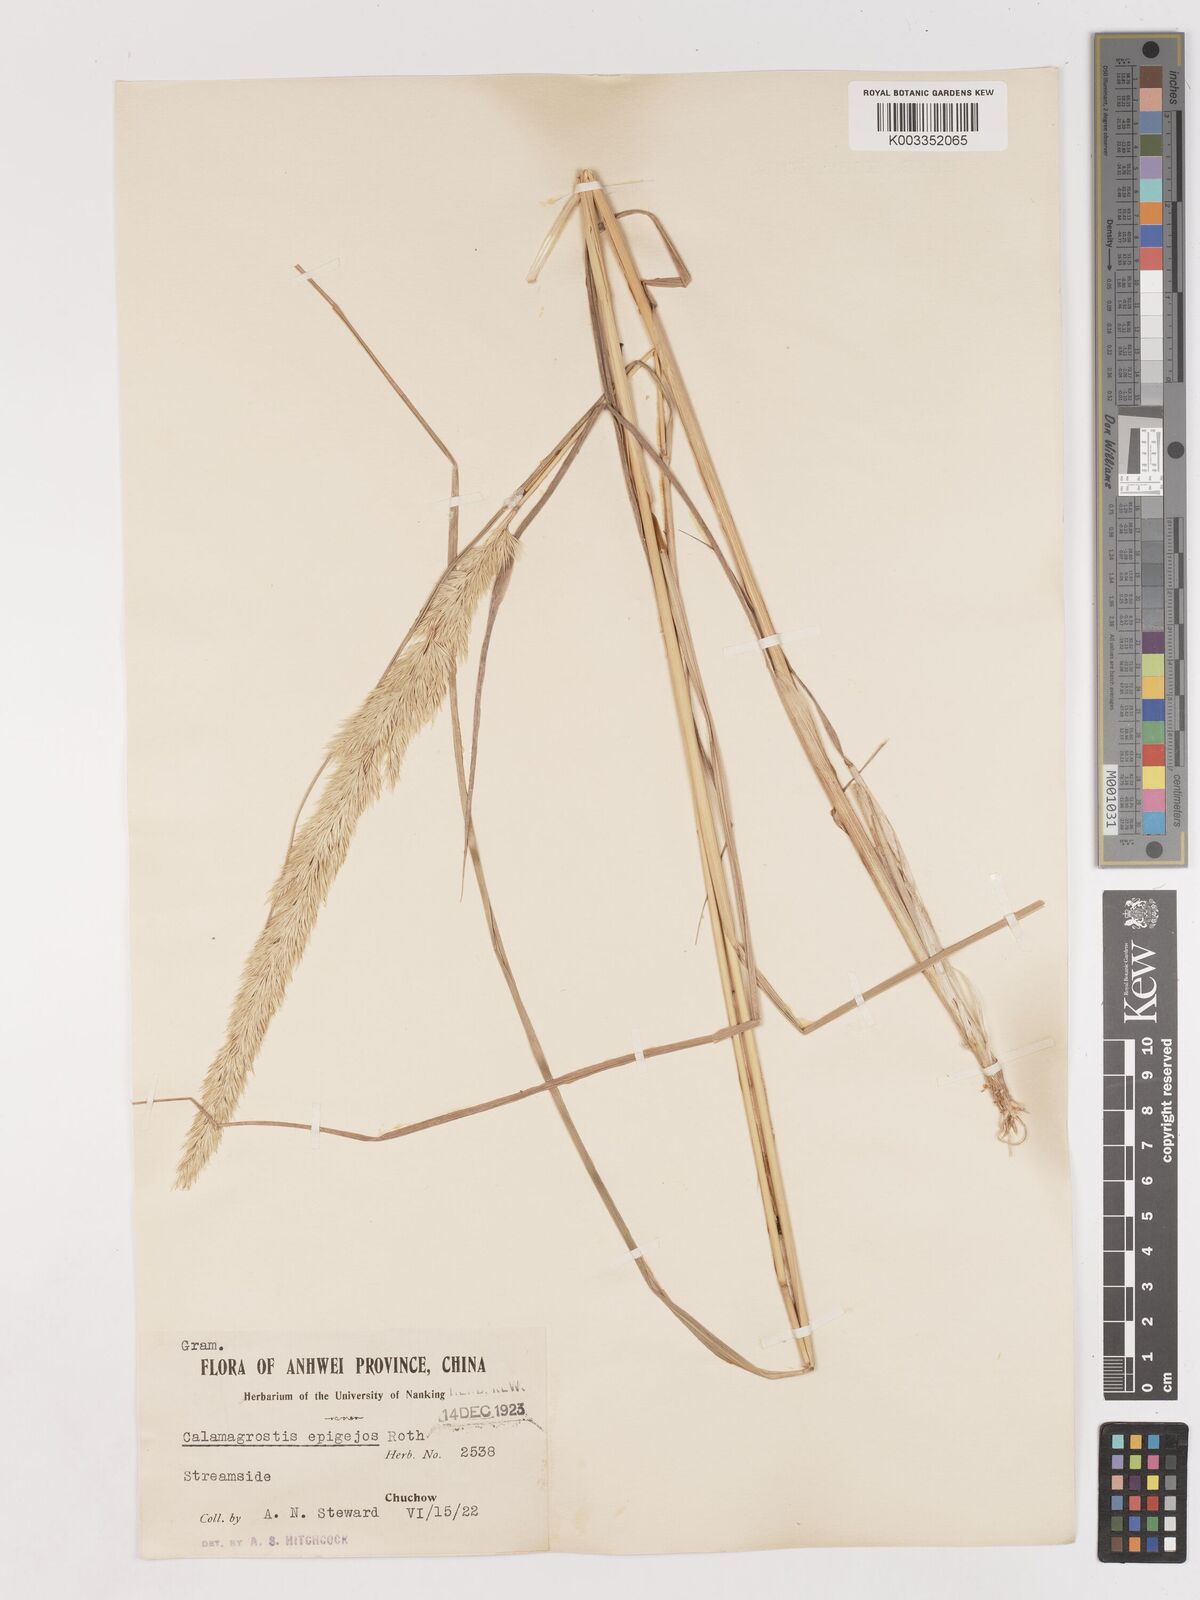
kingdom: Plantae
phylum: Tracheophyta
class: Liliopsida
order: Poales
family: Poaceae
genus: Calamagrostis
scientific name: Calamagrostis epigejos
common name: Wood small-reed
